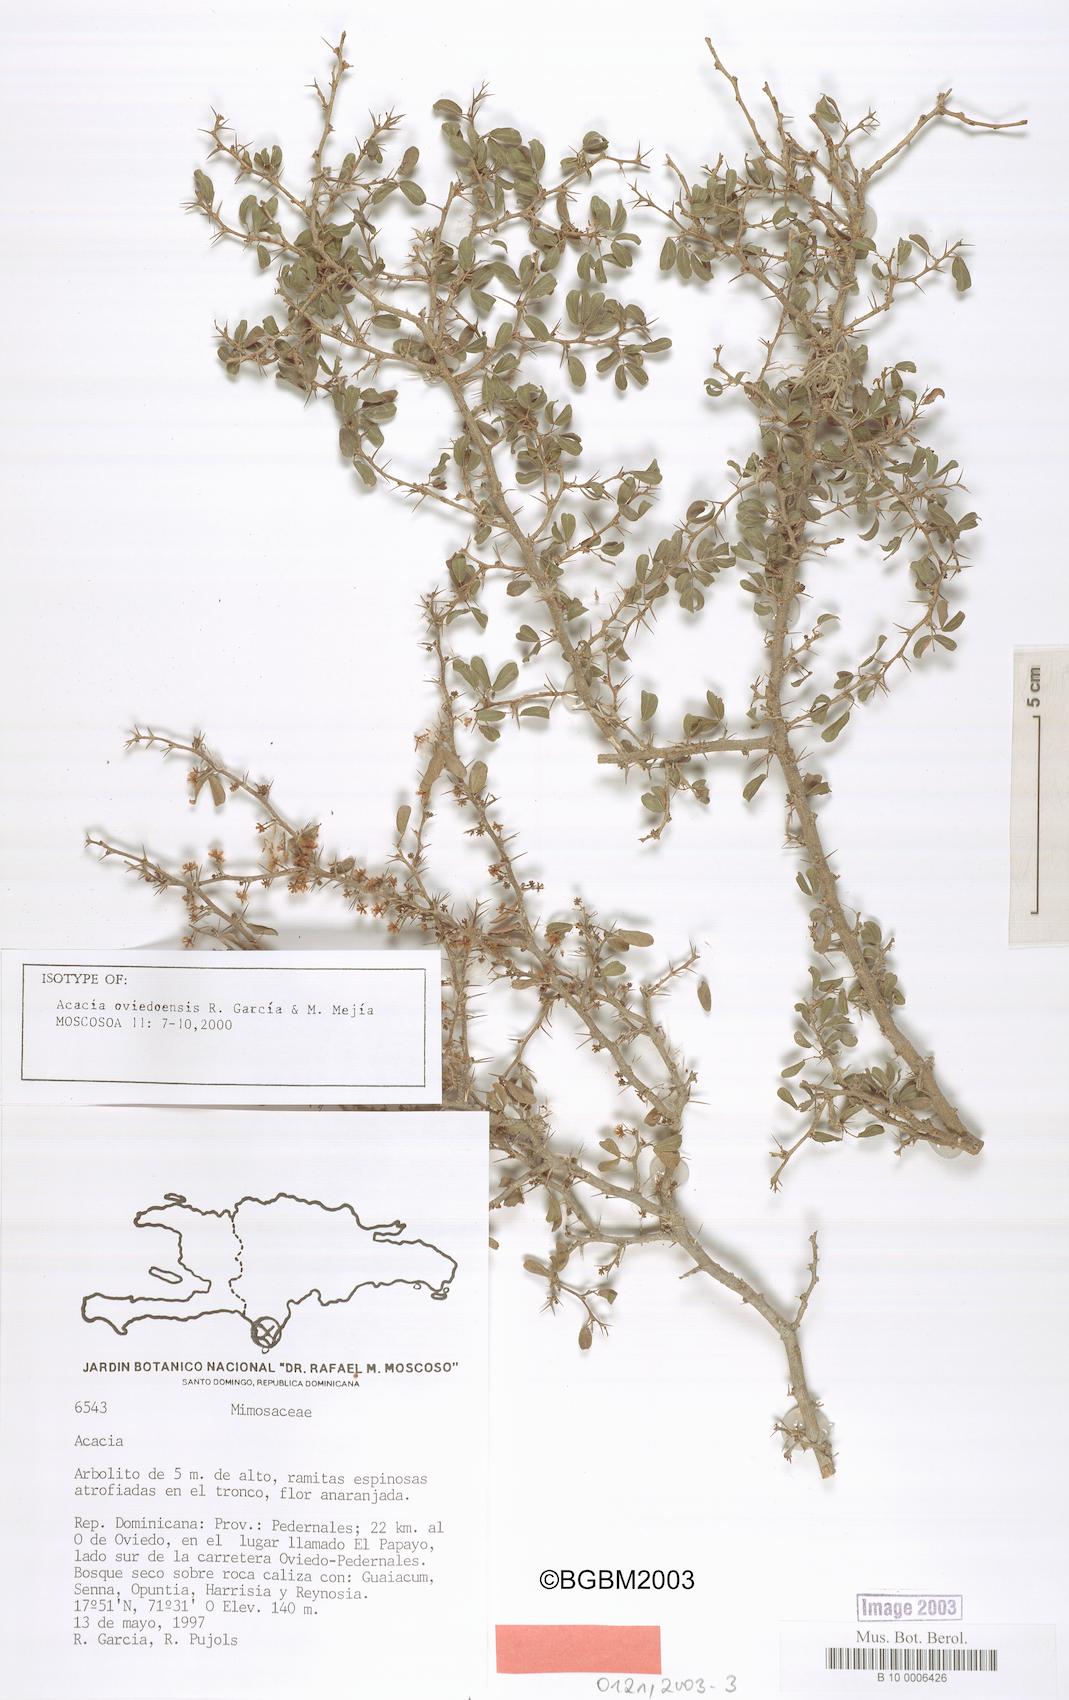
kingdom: Plantae
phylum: Tracheophyta
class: Magnoliopsida
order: Fabales
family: Fabaceae
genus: Vachellia
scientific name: Vachellia oviedoensis
